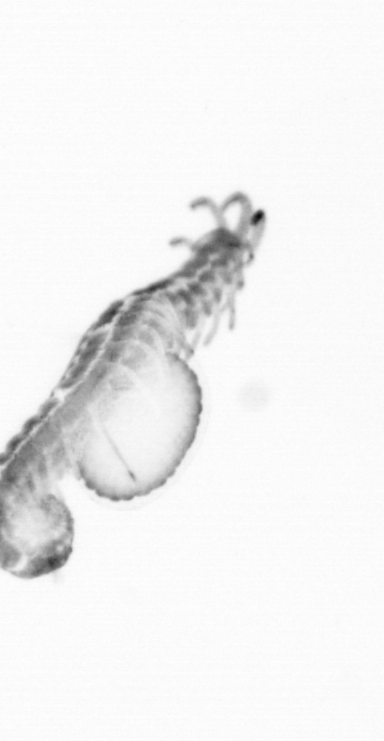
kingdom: Animalia
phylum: Annelida
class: Polychaeta
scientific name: Polychaeta
